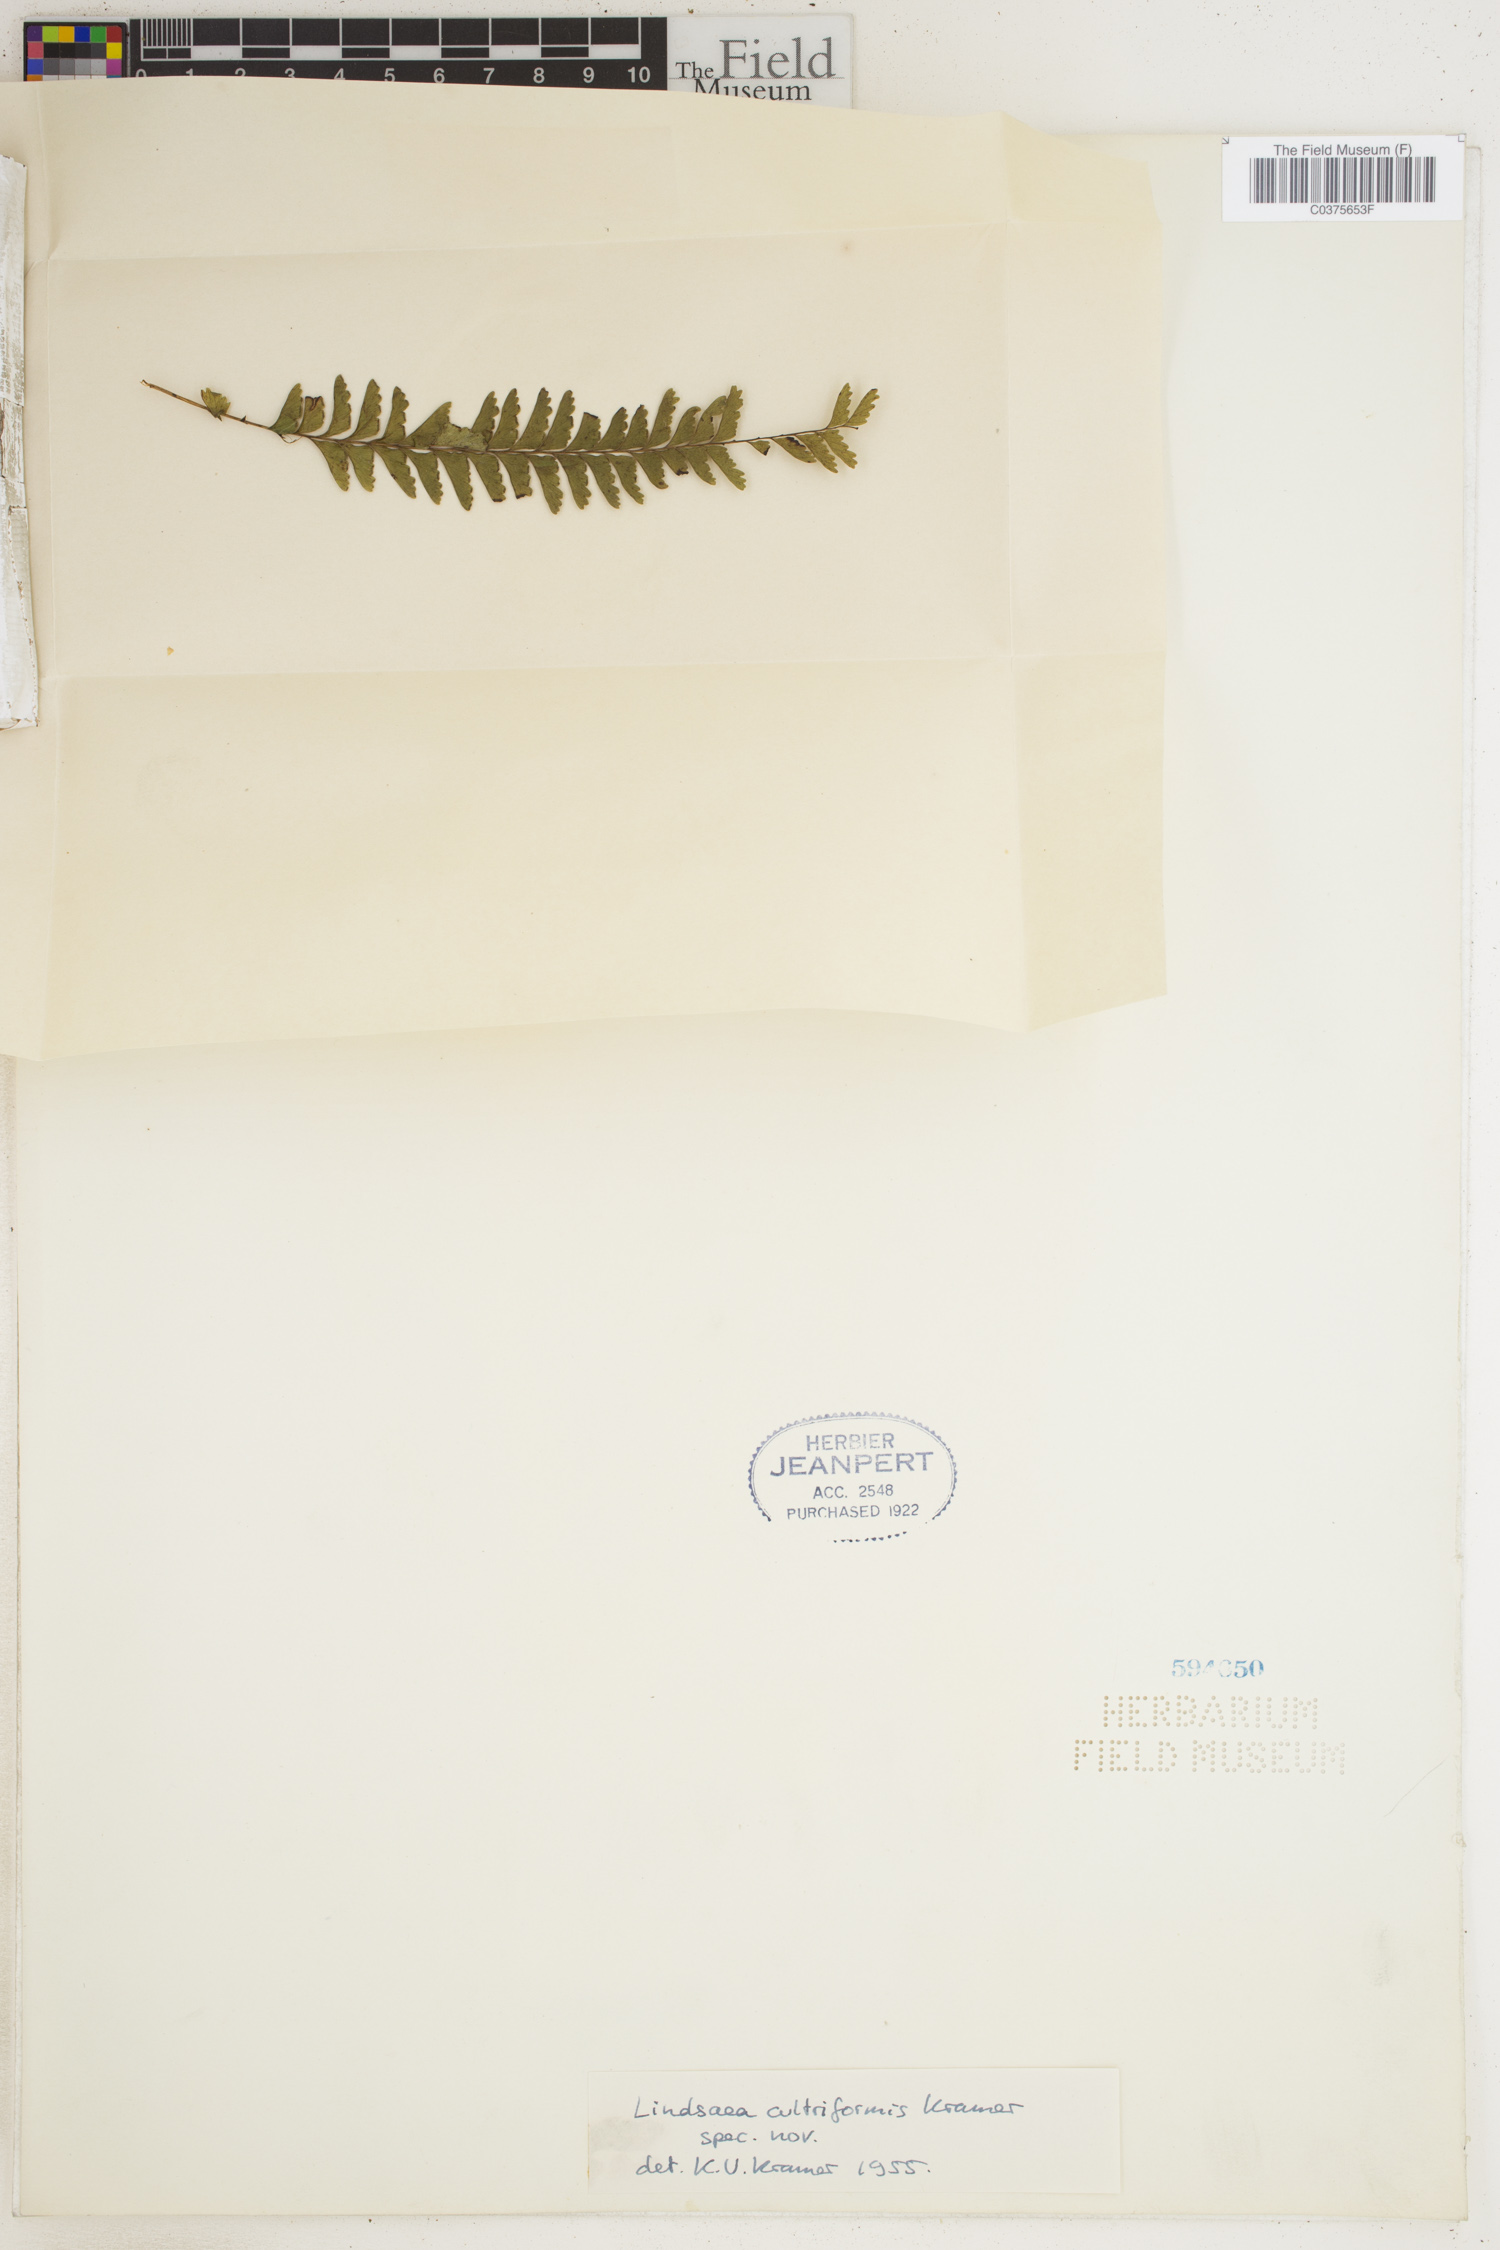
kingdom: Plantae
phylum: Tracheophyta
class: Polypodiopsida
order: Polypodiales
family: Lindsaeaceae
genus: Lindsaea
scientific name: Lindsaea cultriformis
